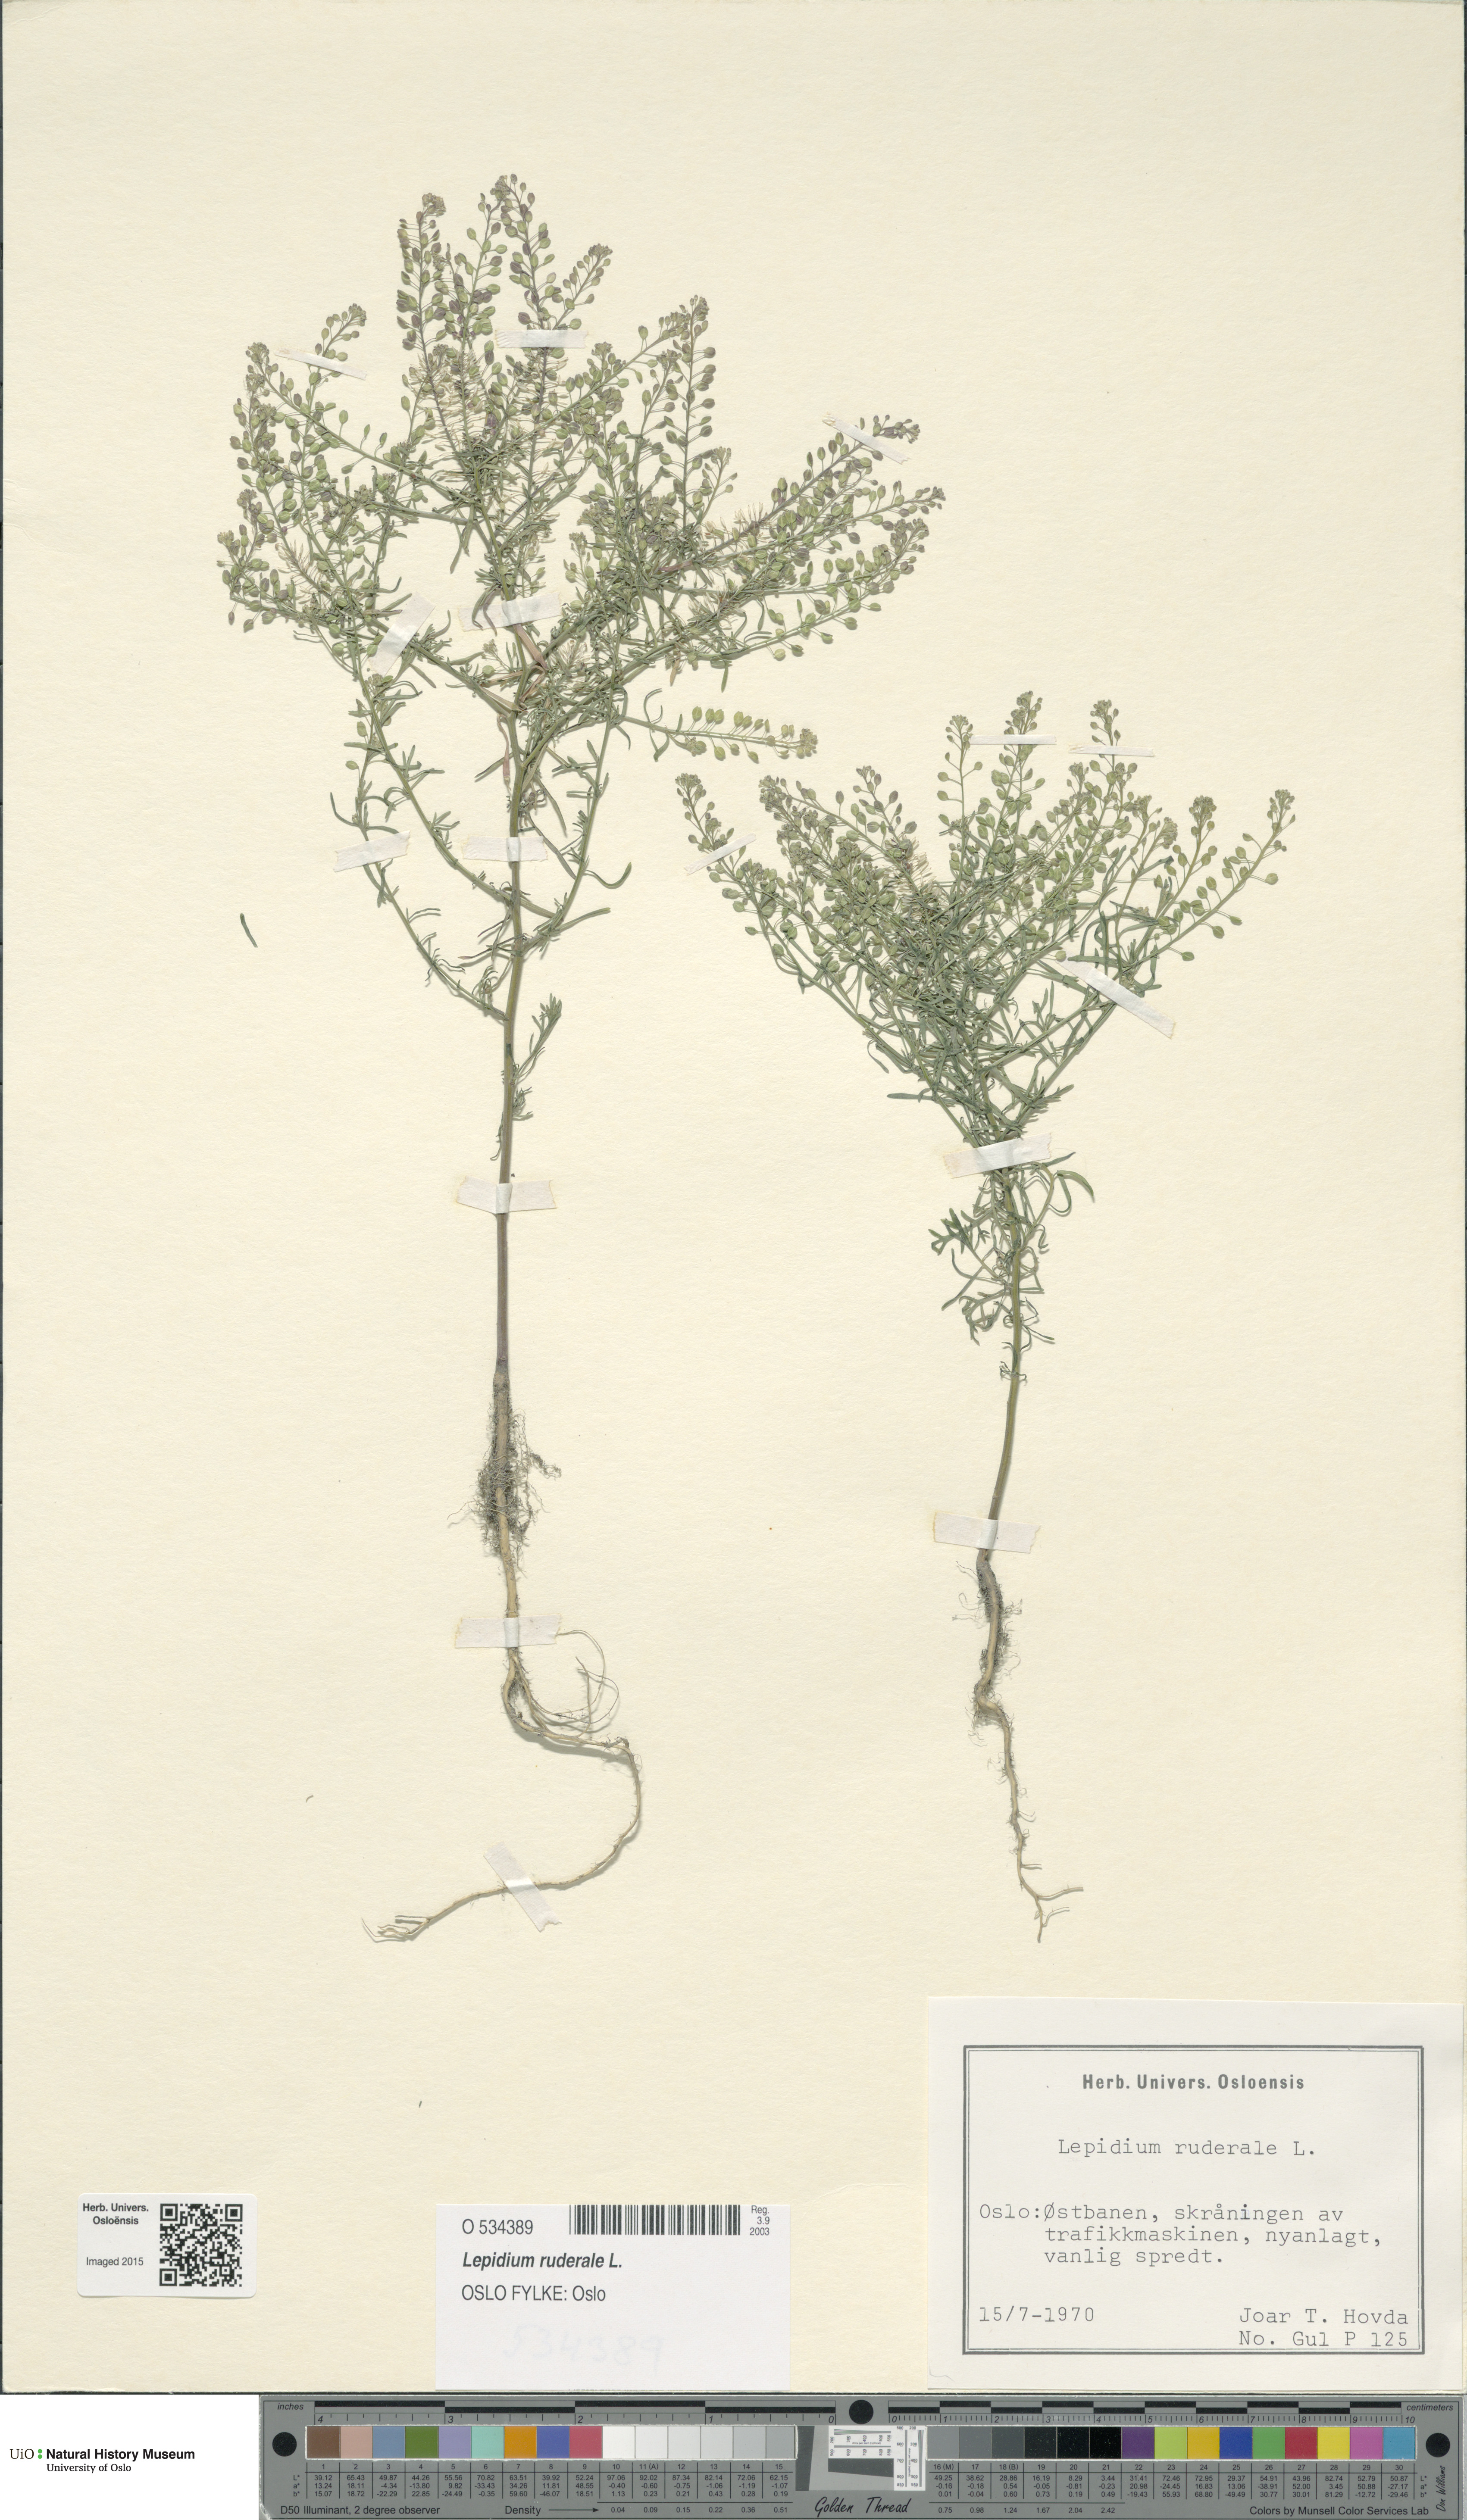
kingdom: Plantae
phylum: Tracheophyta
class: Magnoliopsida
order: Brassicales
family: Brassicaceae
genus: Lepidium
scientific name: Lepidium ruderale
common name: Narrow-leaved pepperwort
